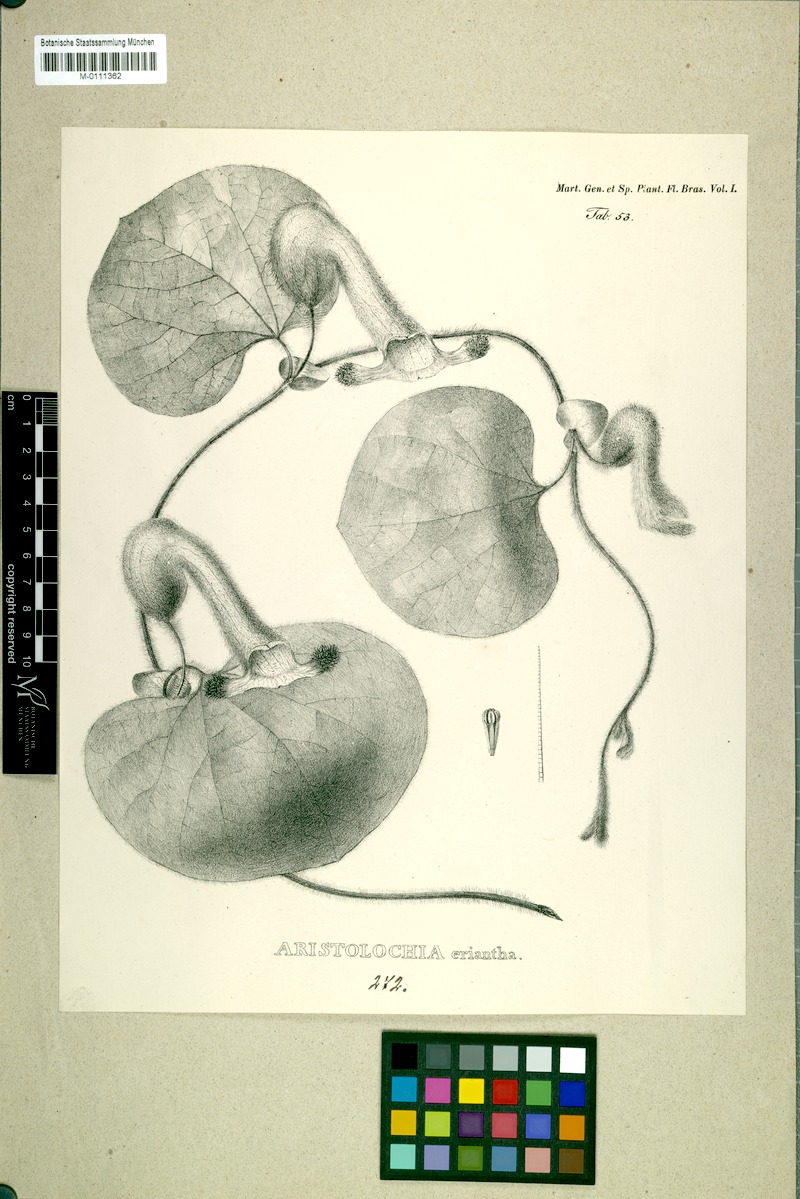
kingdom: Plantae
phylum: Tracheophyta
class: Magnoliopsida
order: Piperales
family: Aristolochiaceae
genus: Aristolochia
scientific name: Aristolochia eriantha
